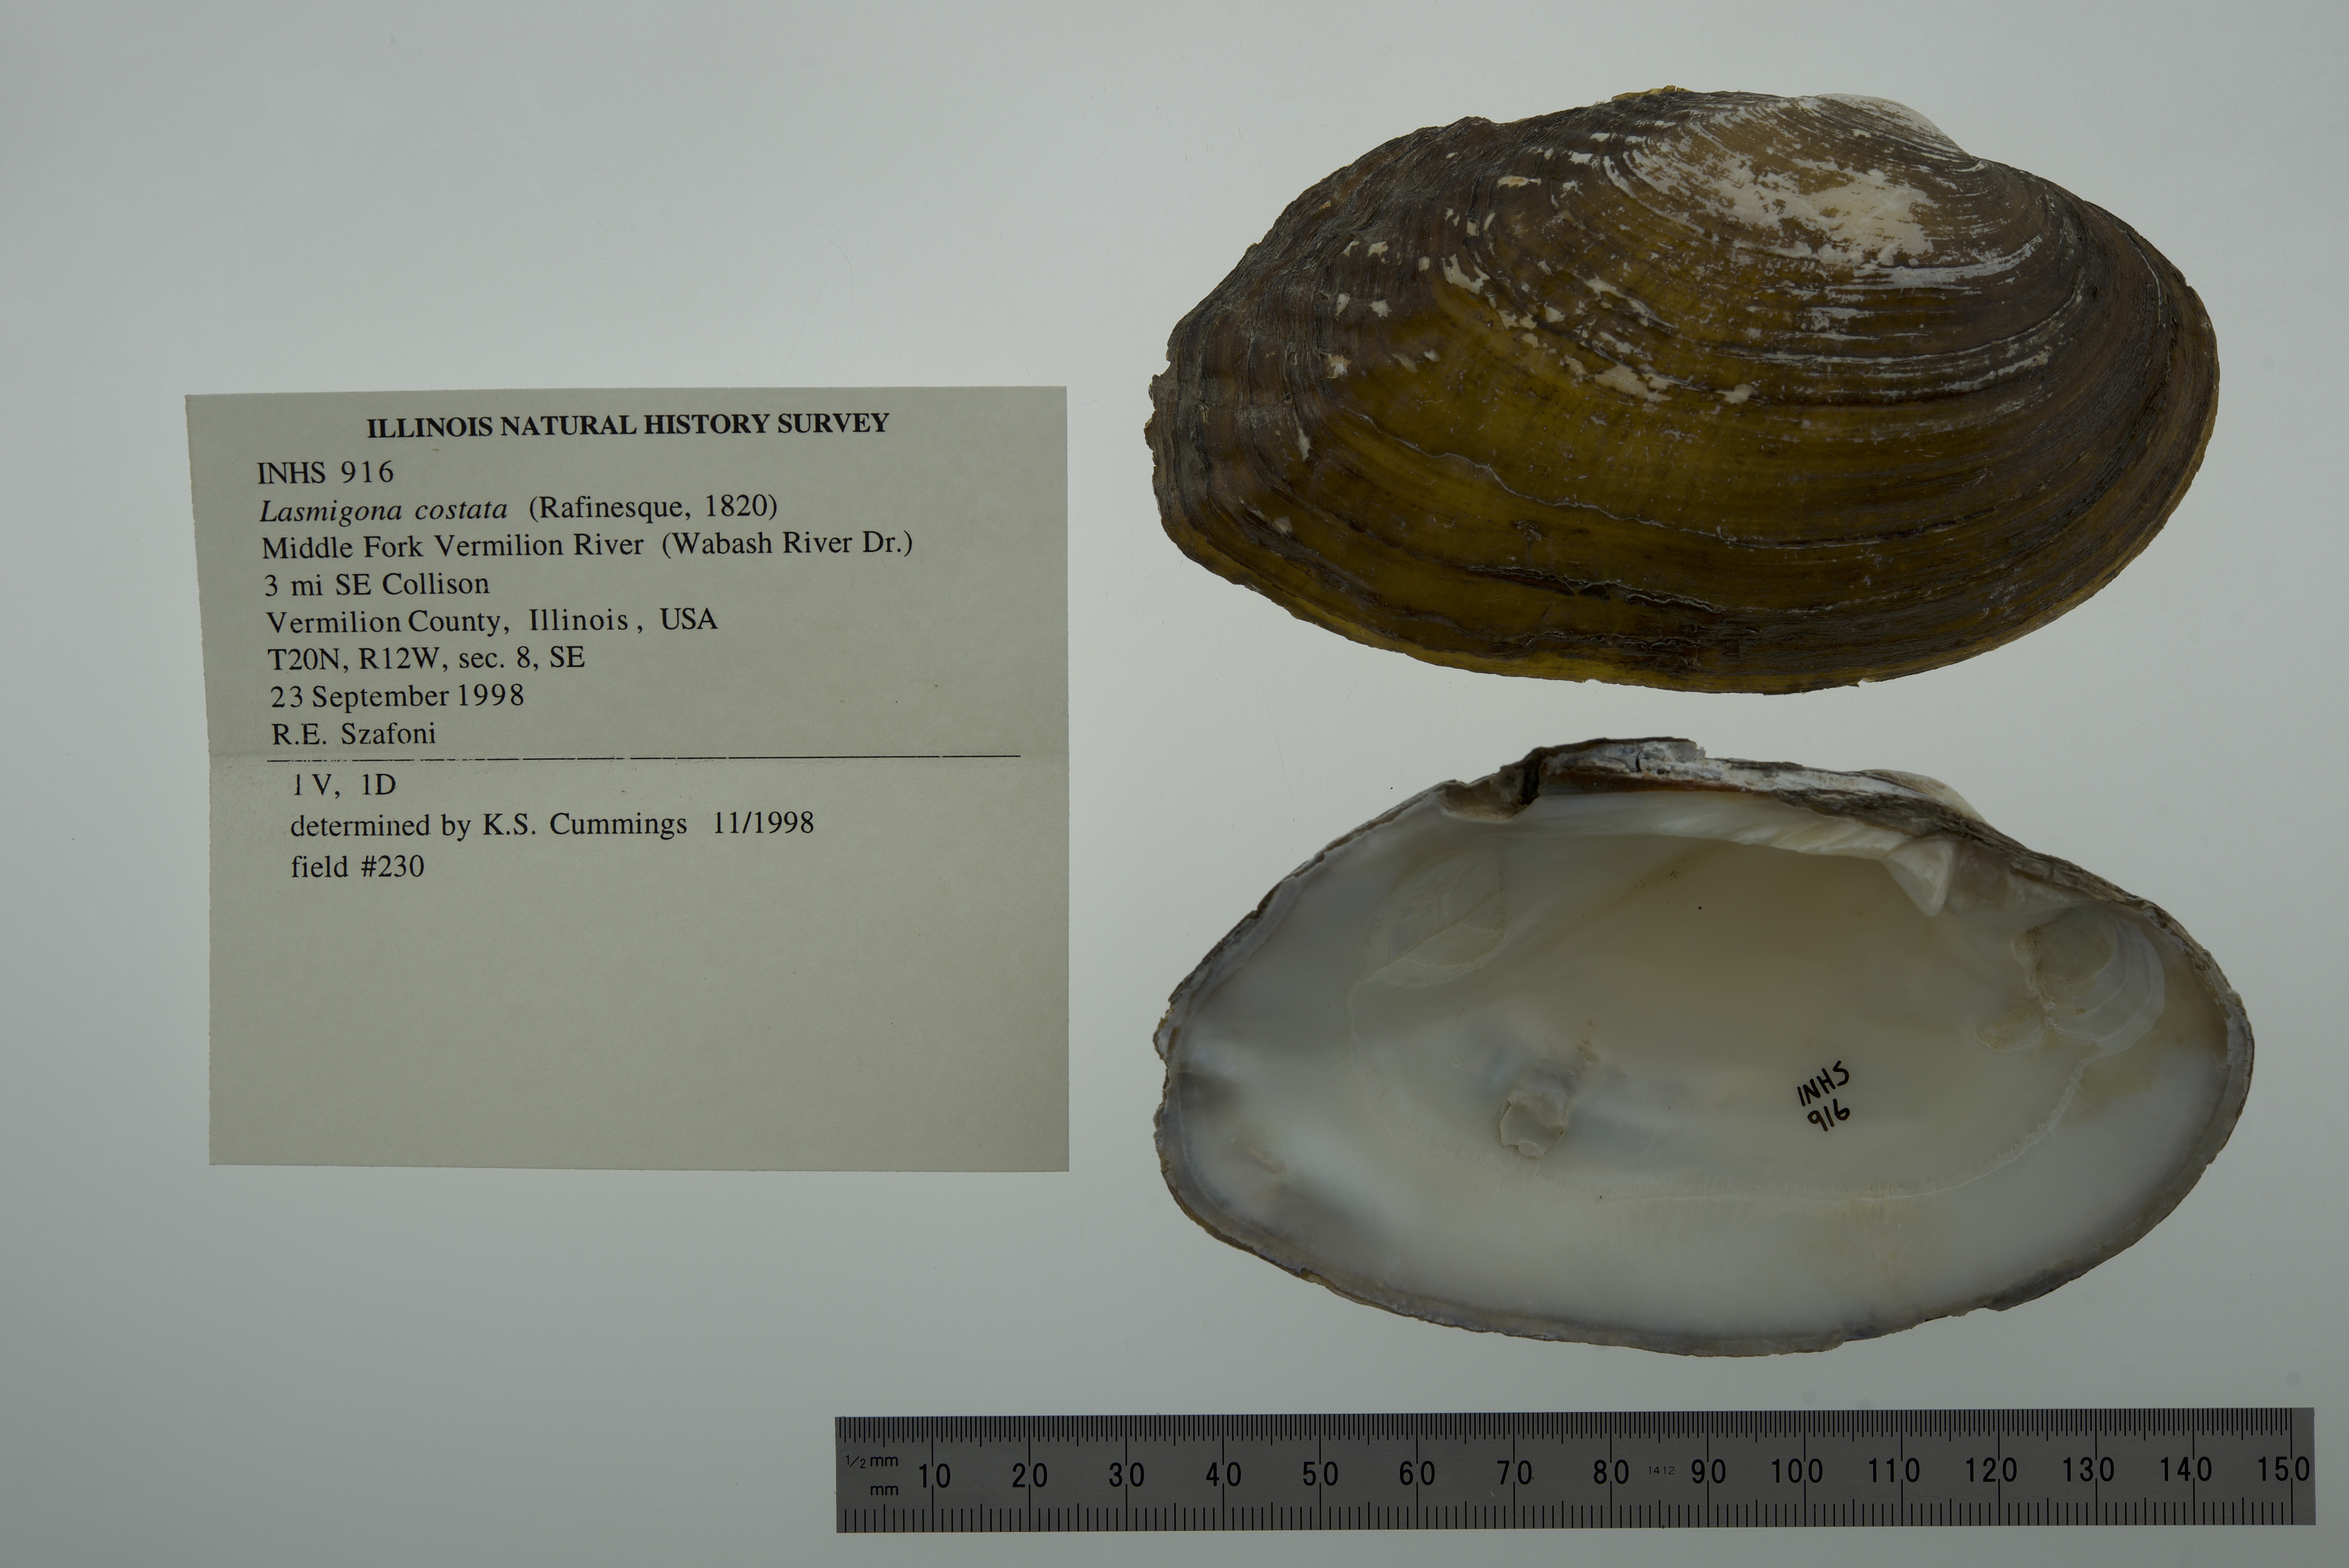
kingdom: Animalia
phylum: Mollusca
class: Bivalvia
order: Unionida
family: Unionidae
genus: Lasmigona
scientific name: Lasmigona costata
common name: Flutedshell
